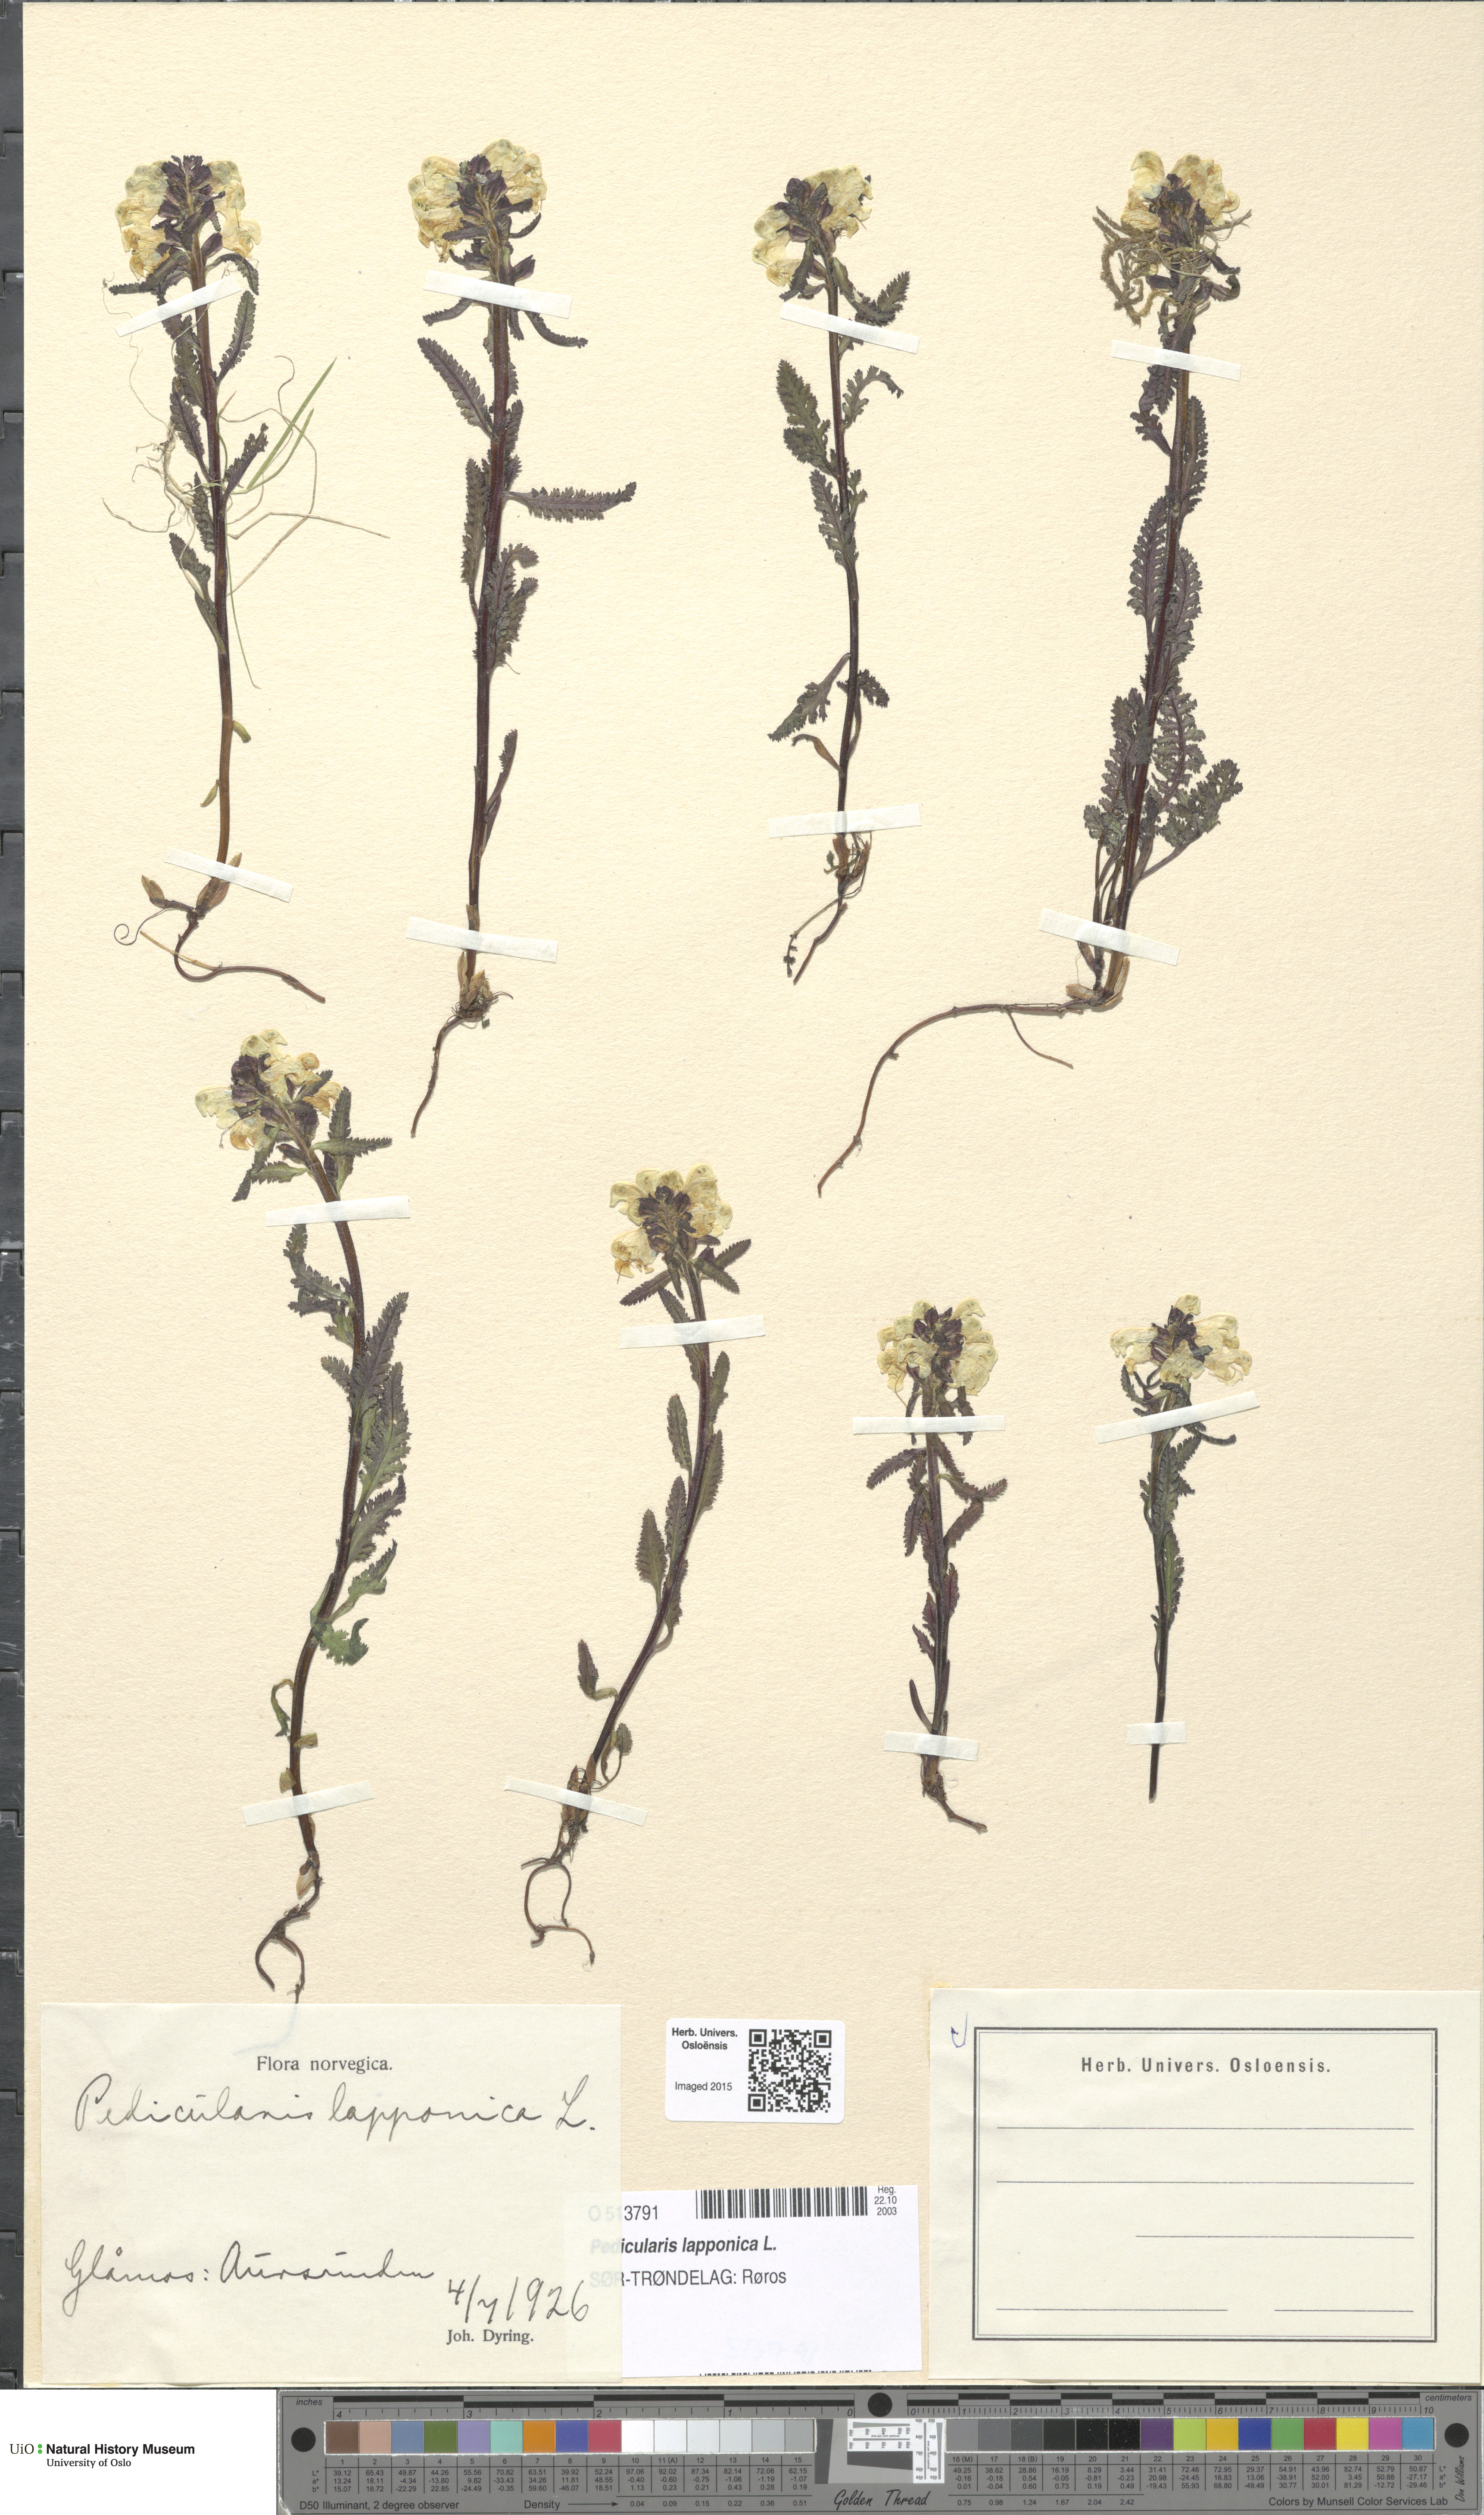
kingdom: Plantae
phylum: Tracheophyta
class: Magnoliopsida
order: Lamiales
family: Orobanchaceae
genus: Pedicularis
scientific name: Pedicularis lapponica
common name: Lapland lousewort
